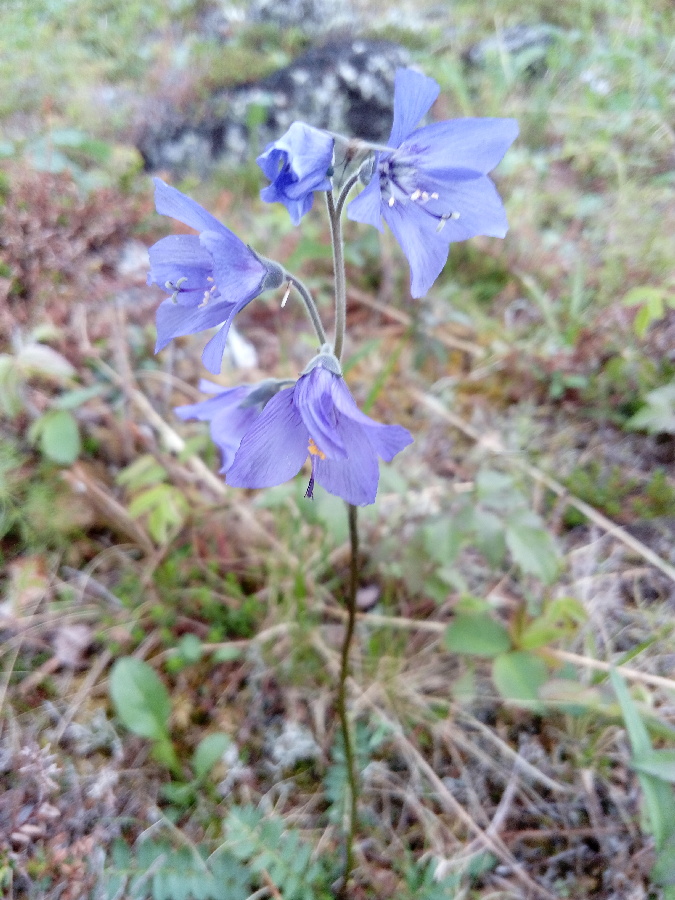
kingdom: Plantae
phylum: Tracheophyta
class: Magnoliopsida
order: Ericales
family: Polemoniaceae
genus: Polemonium
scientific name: Polemonium acutiflorum
